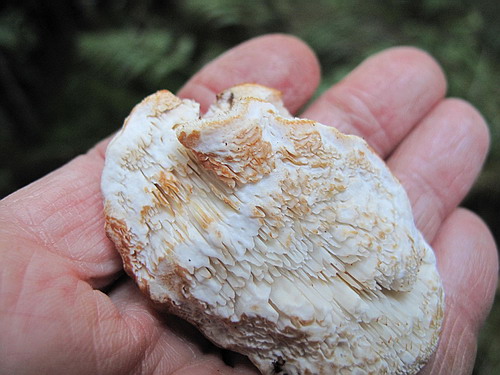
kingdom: Fungi
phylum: Basidiomycota
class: Agaricomycetes
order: Polyporales
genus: Fuscopostia
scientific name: Fuscopostia fragilis
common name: brunende kødporesvamp
